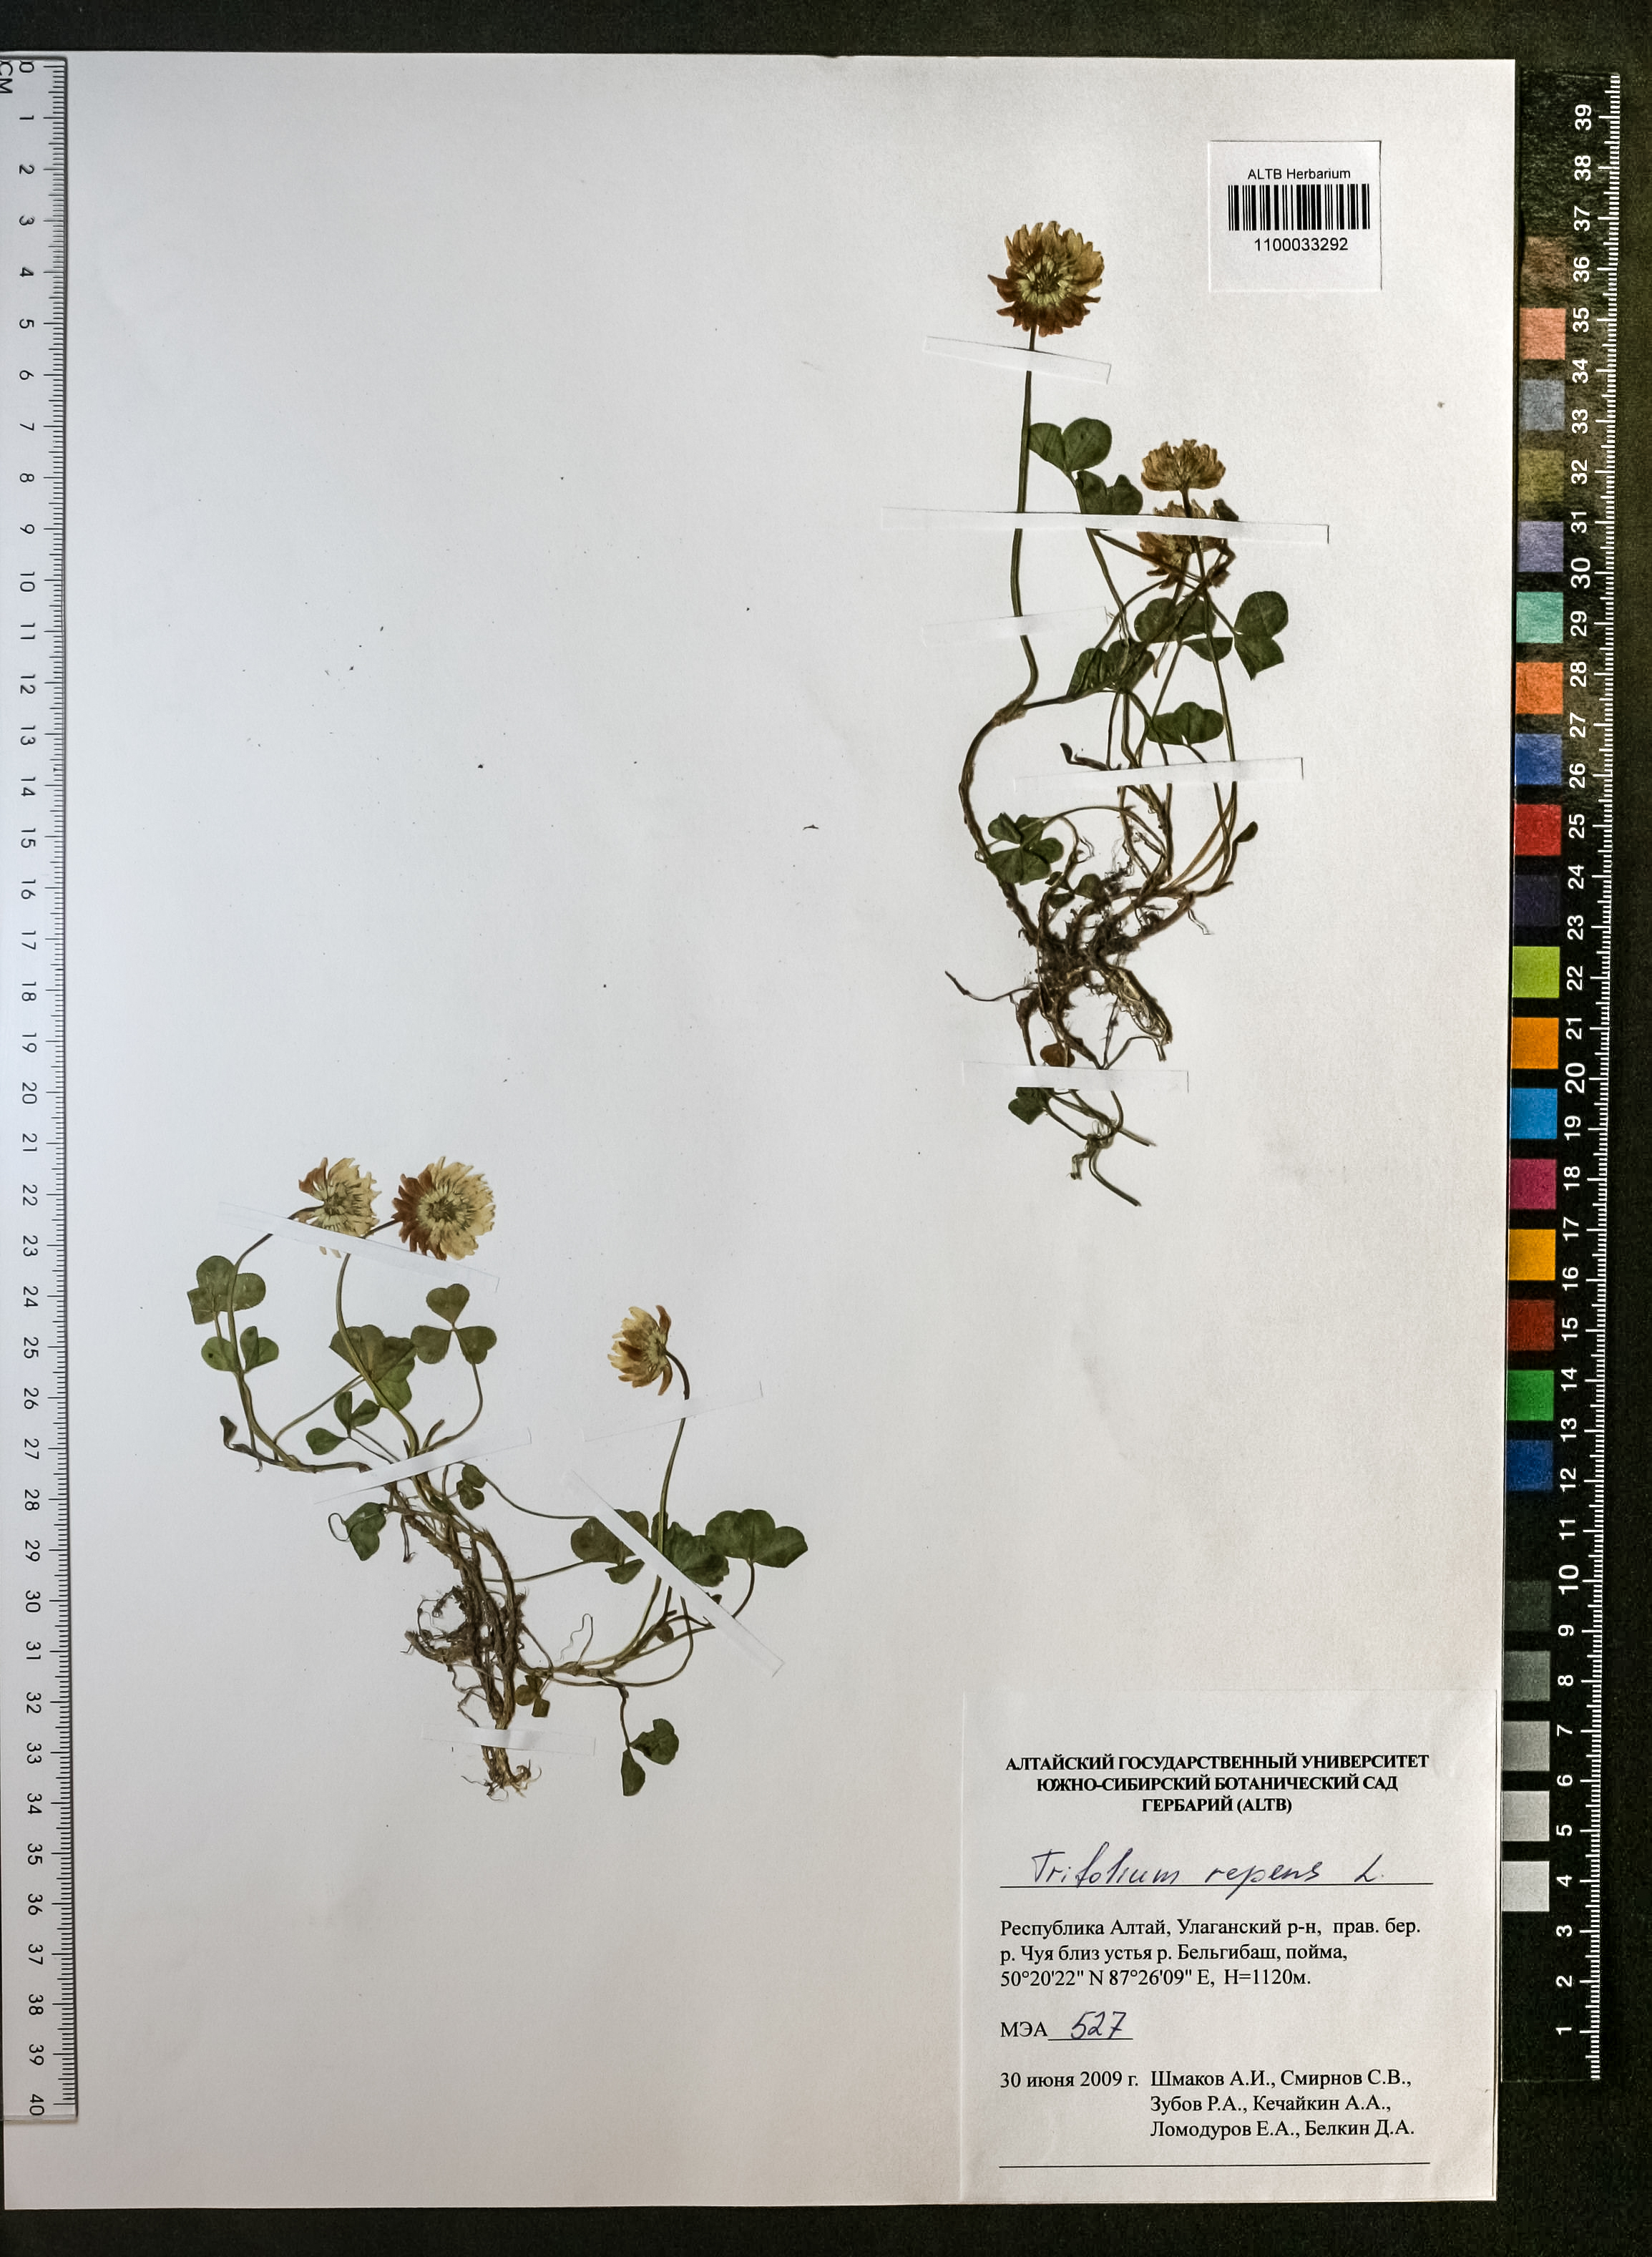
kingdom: Plantae
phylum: Tracheophyta
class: Magnoliopsida
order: Fabales
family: Fabaceae
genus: Trifolium
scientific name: Trifolium repens
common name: White clover
